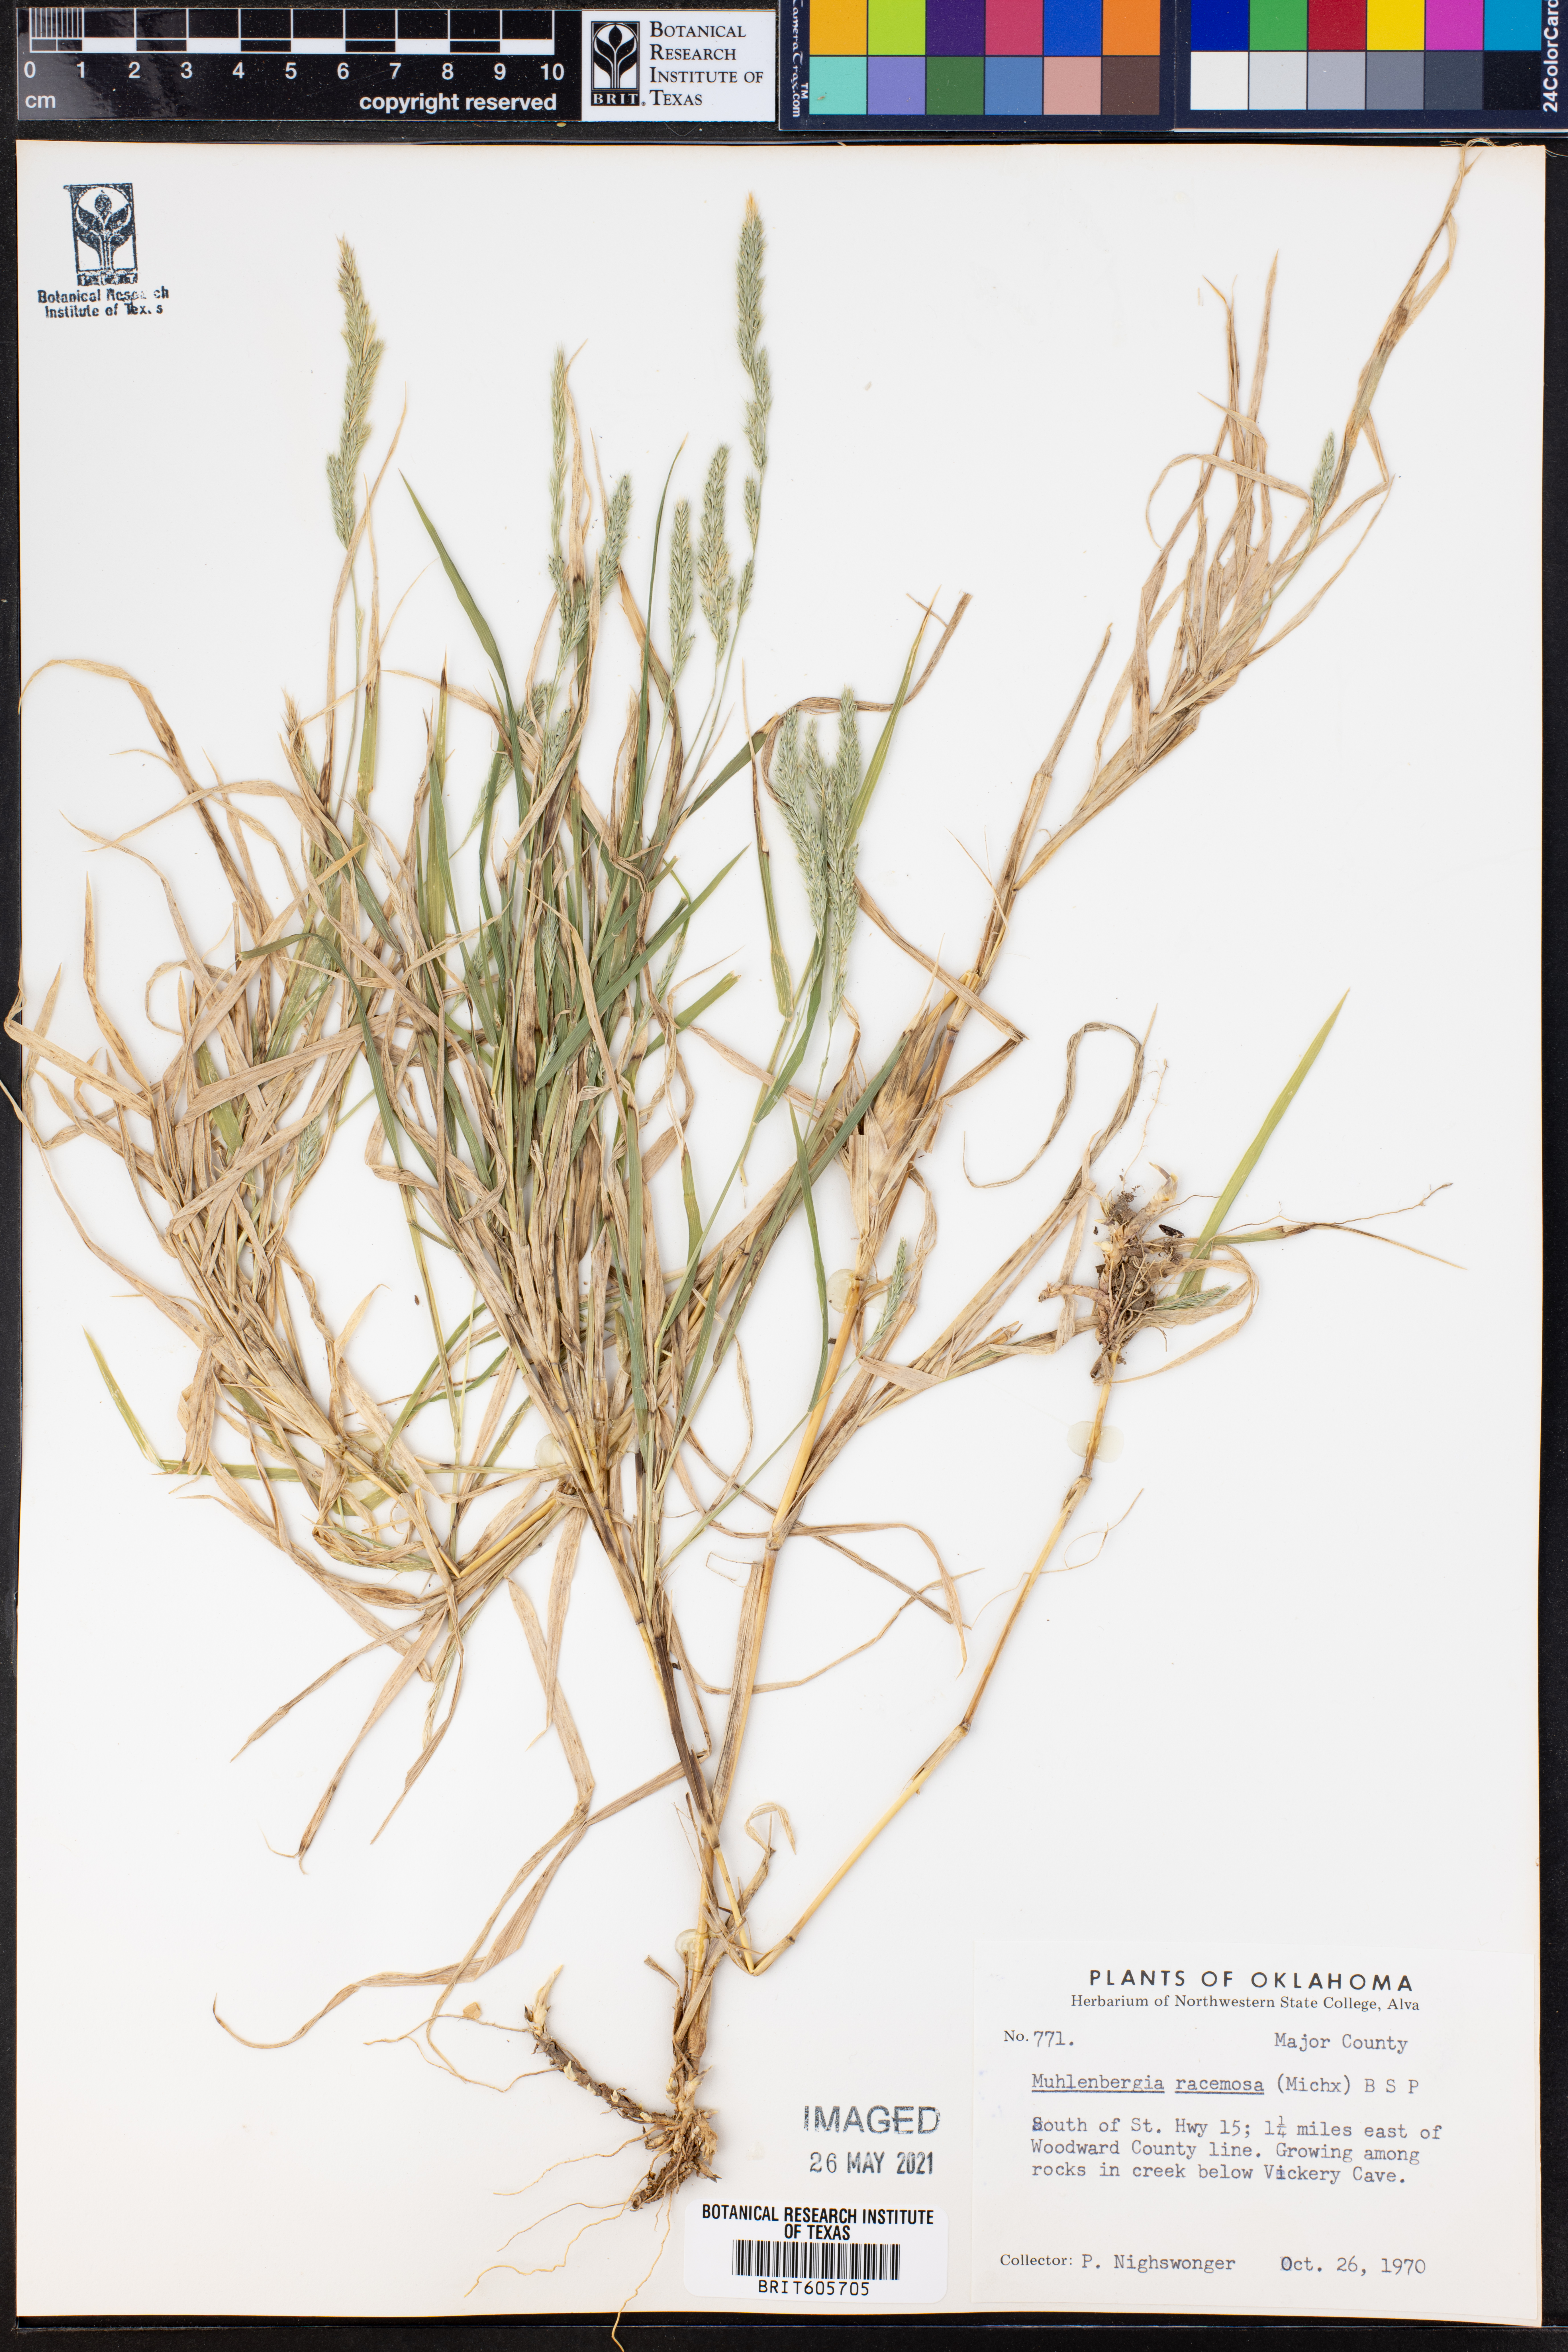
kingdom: Plantae
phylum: Tracheophyta
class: Liliopsida
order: Poales
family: Poaceae
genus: Muhlenbergia
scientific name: Muhlenbergia racemosa
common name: Green muhly
